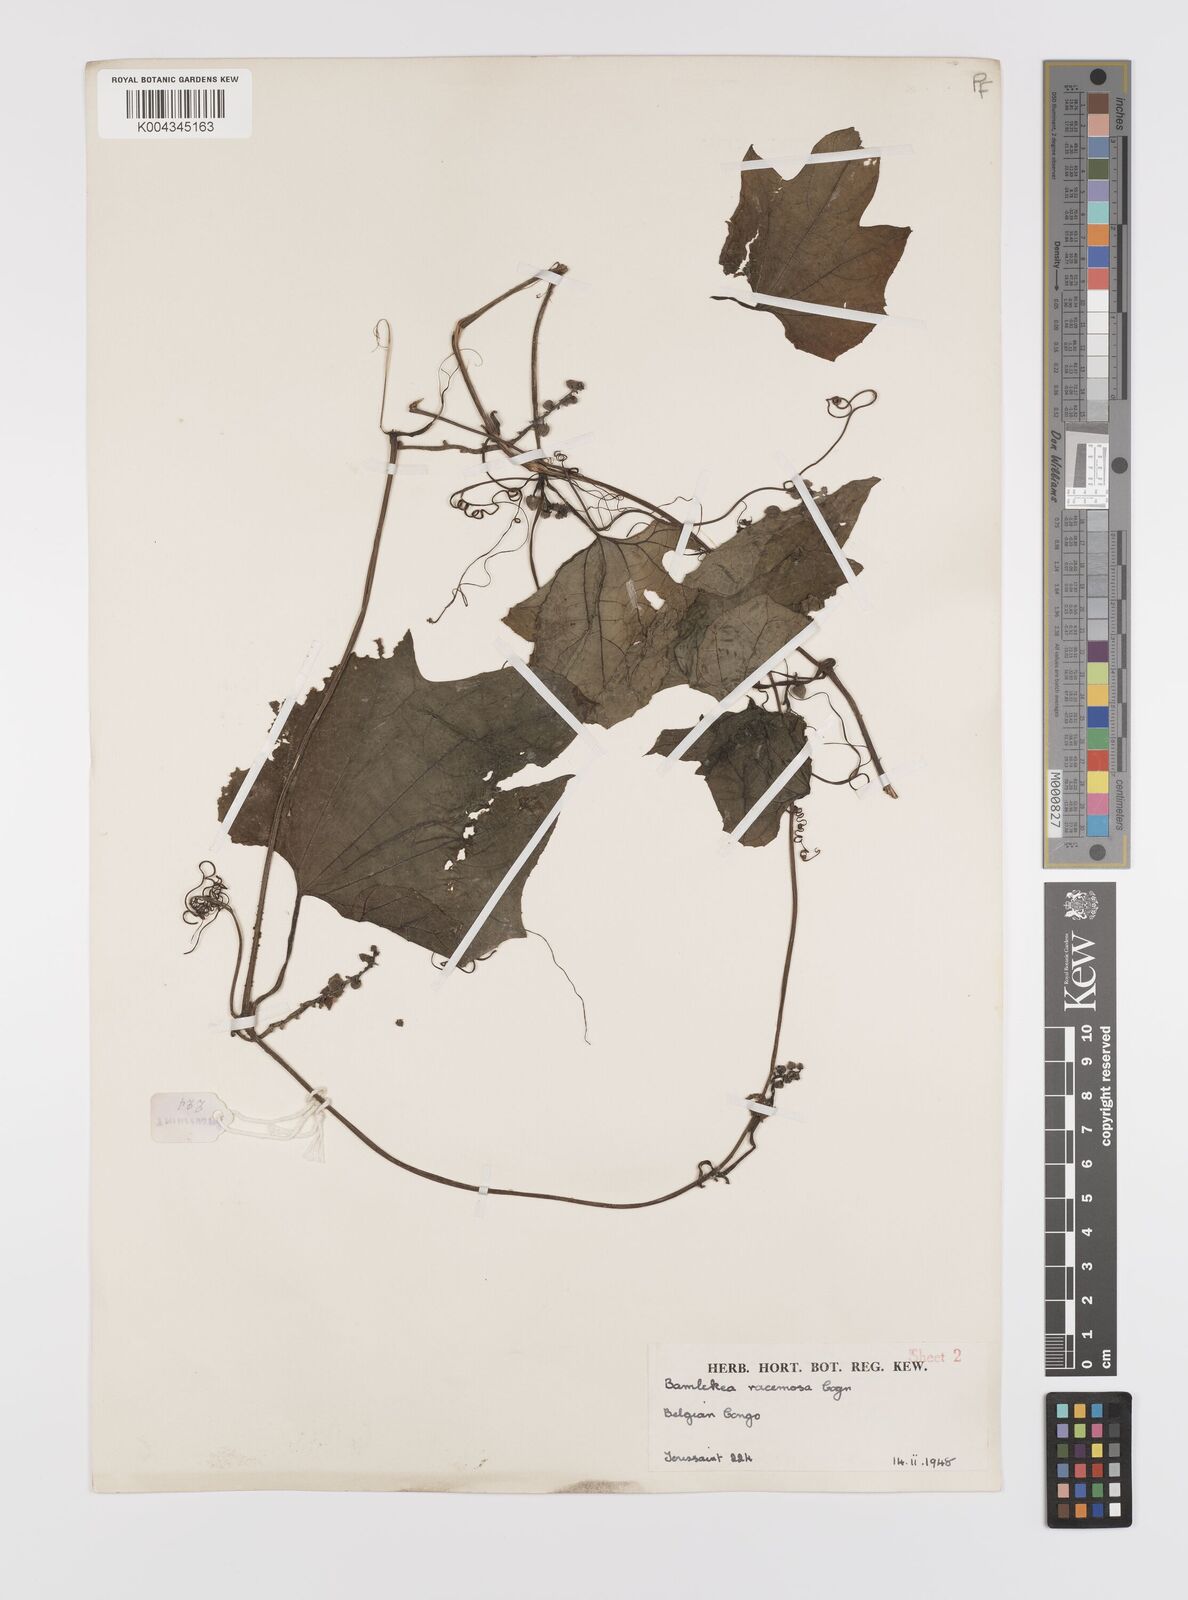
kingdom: Plantae
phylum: Tracheophyta
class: Magnoliopsida
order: Cucurbitales
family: Cucurbitaceae
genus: Bambekea
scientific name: Bambekea racemosa
